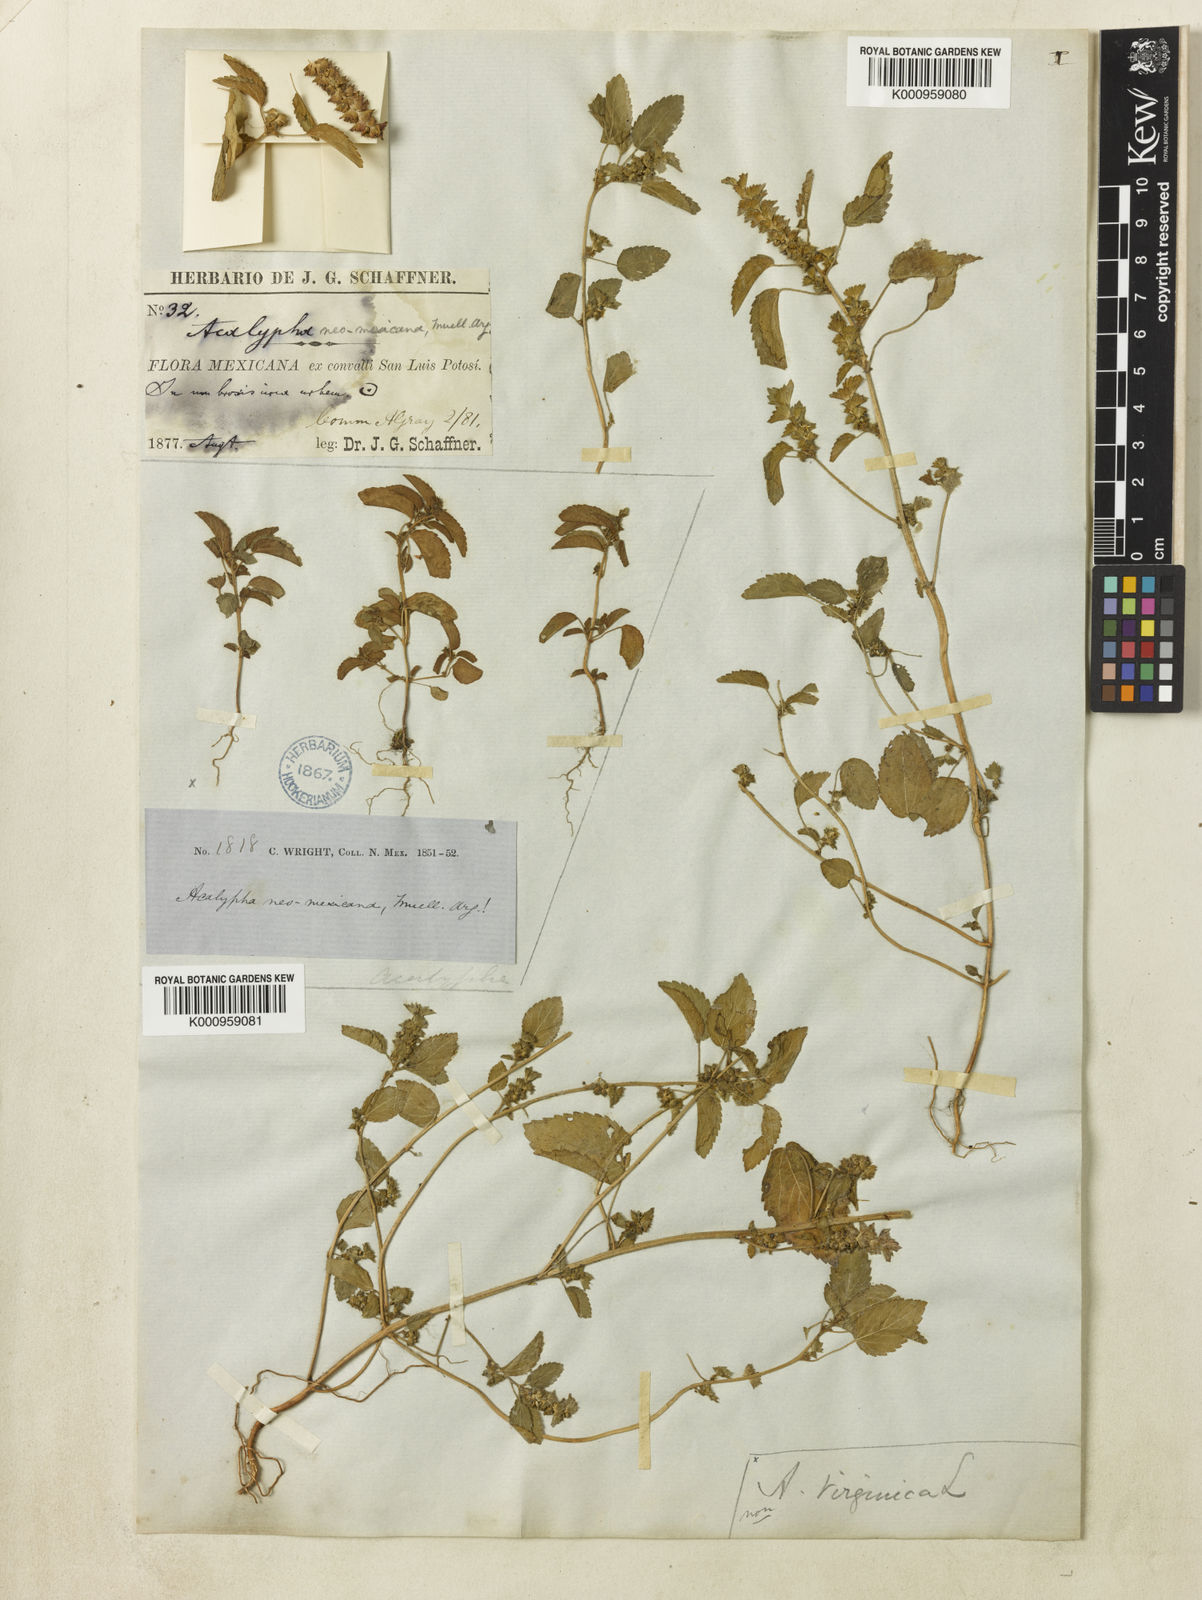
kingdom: Plantae
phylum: Tracheophyta
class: Magnoliopsida
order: Malpighiales
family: Euphorbiaceae
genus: Acalypha
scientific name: Acalypha
